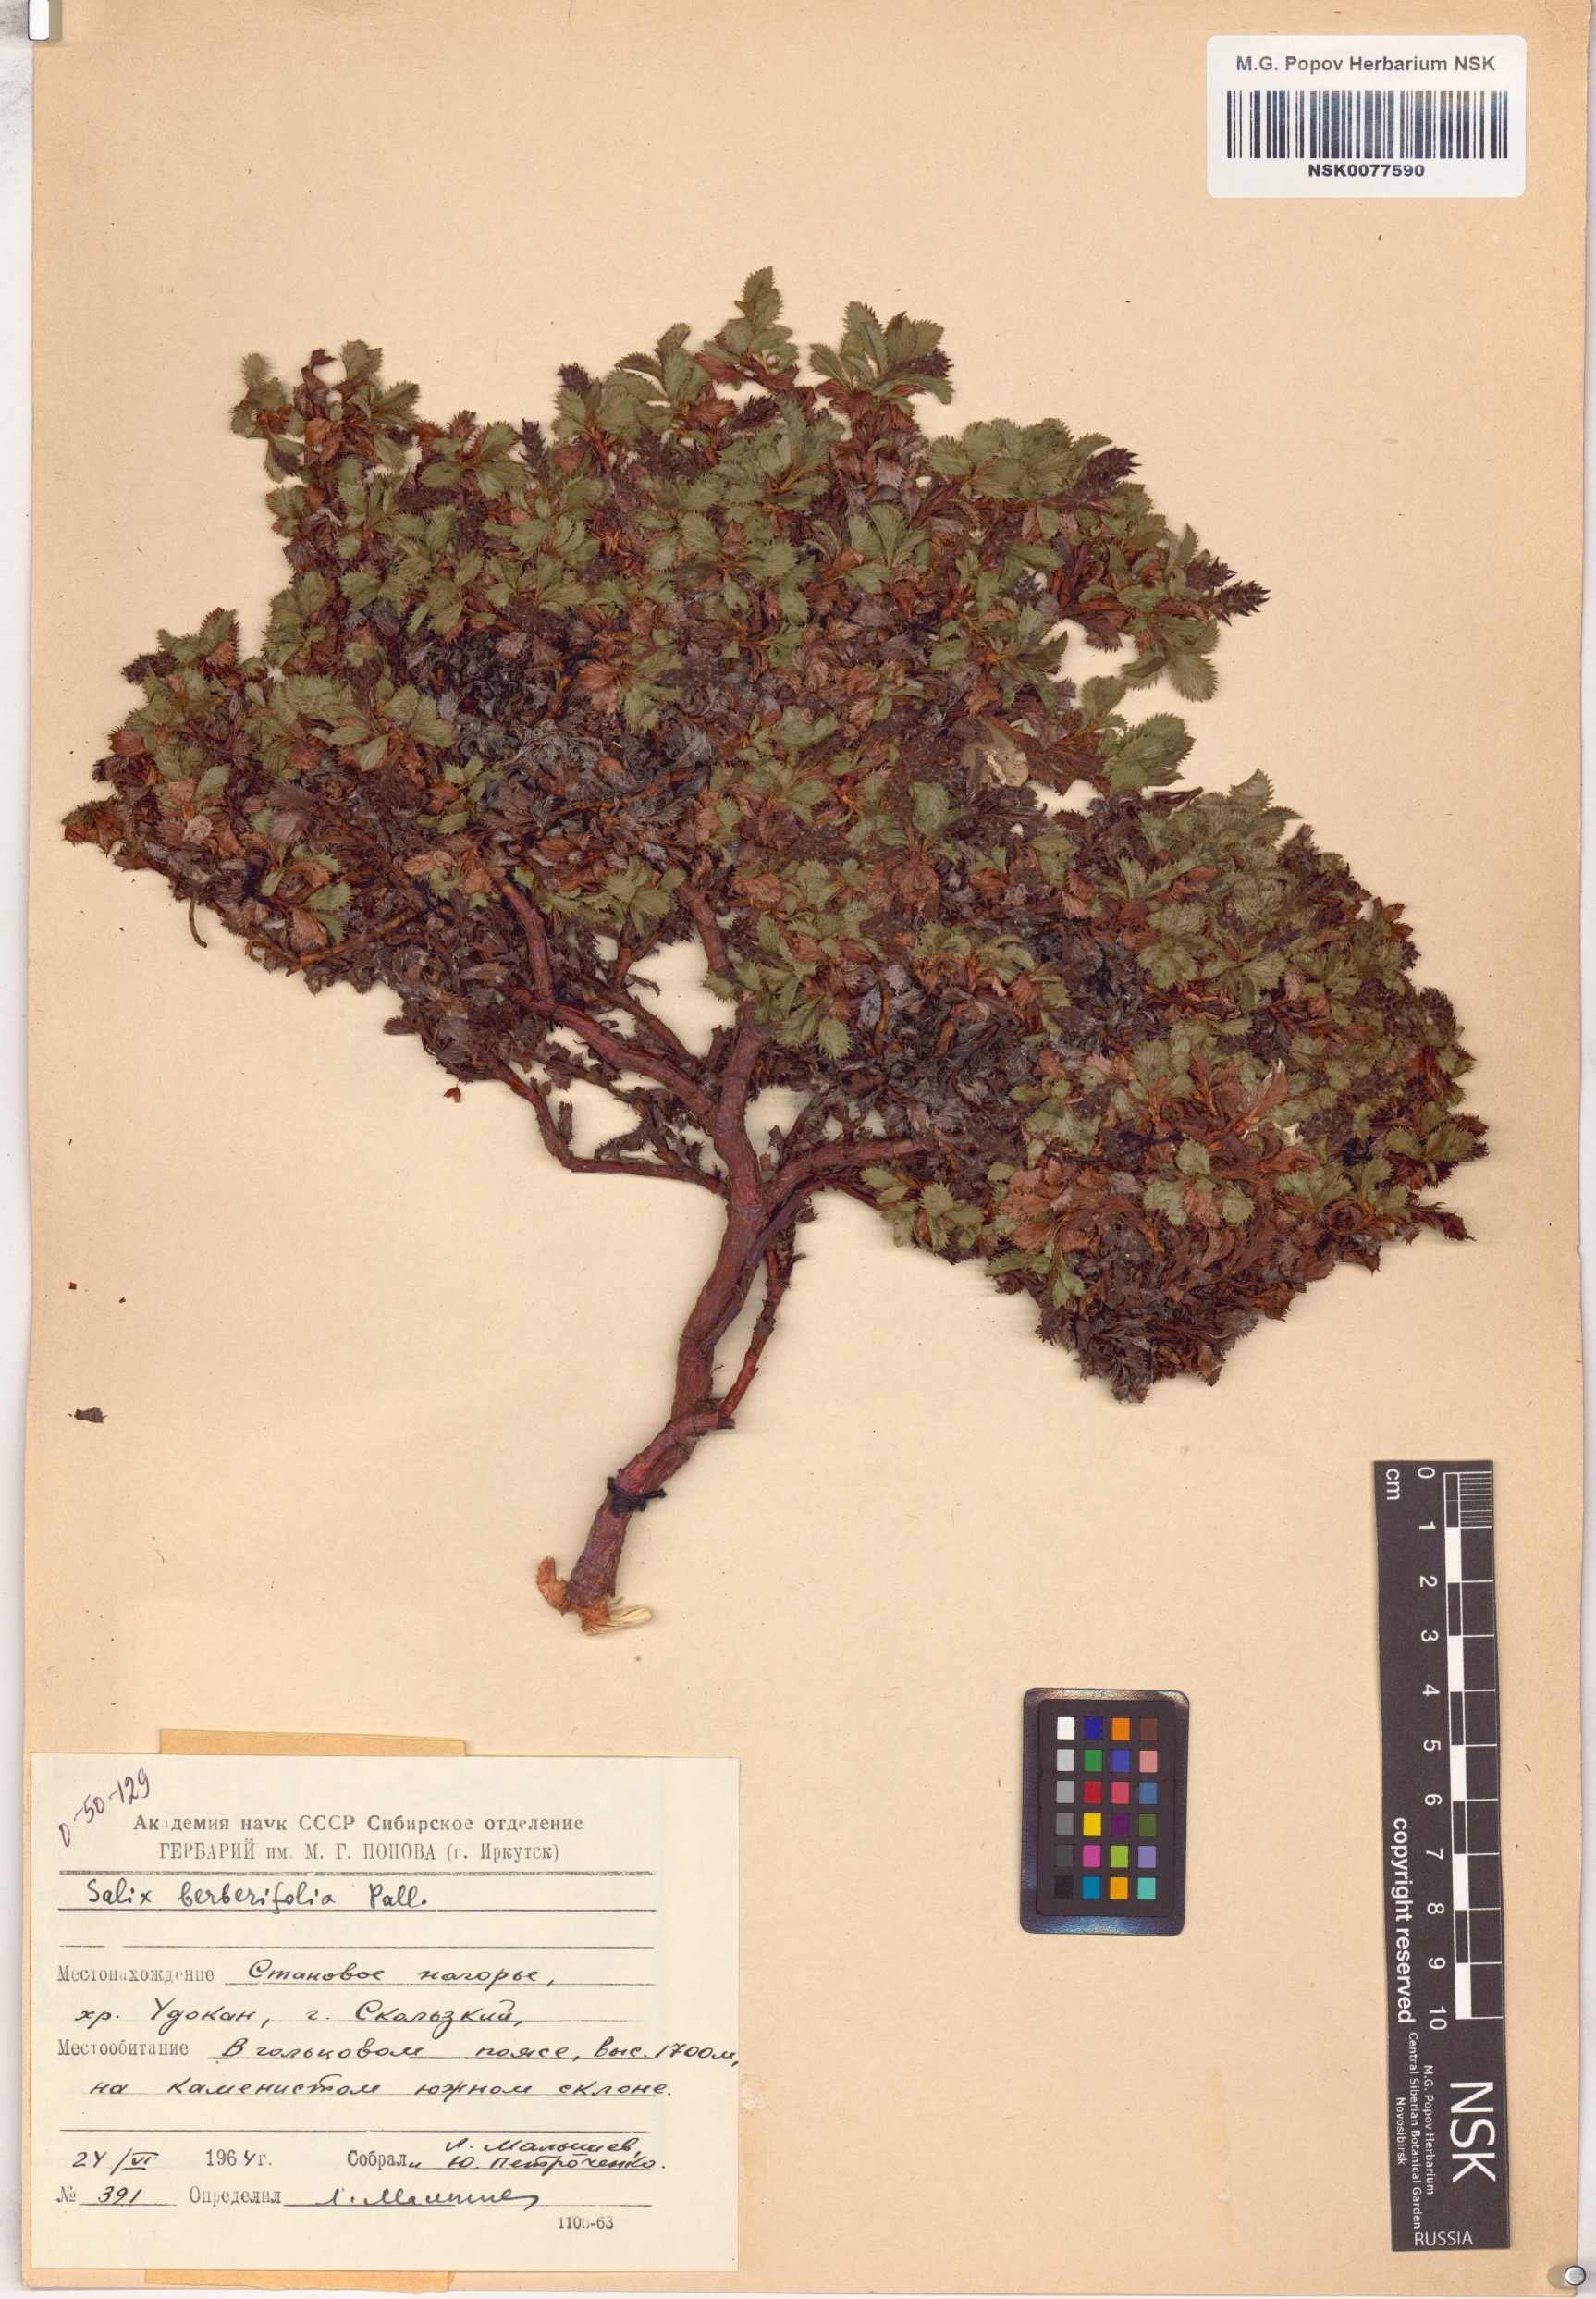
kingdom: Plantae
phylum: Tracheophyta
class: Magnoliopsida
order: Malpighiales
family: Salicaceae
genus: Salix
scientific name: Salix berberifolia
